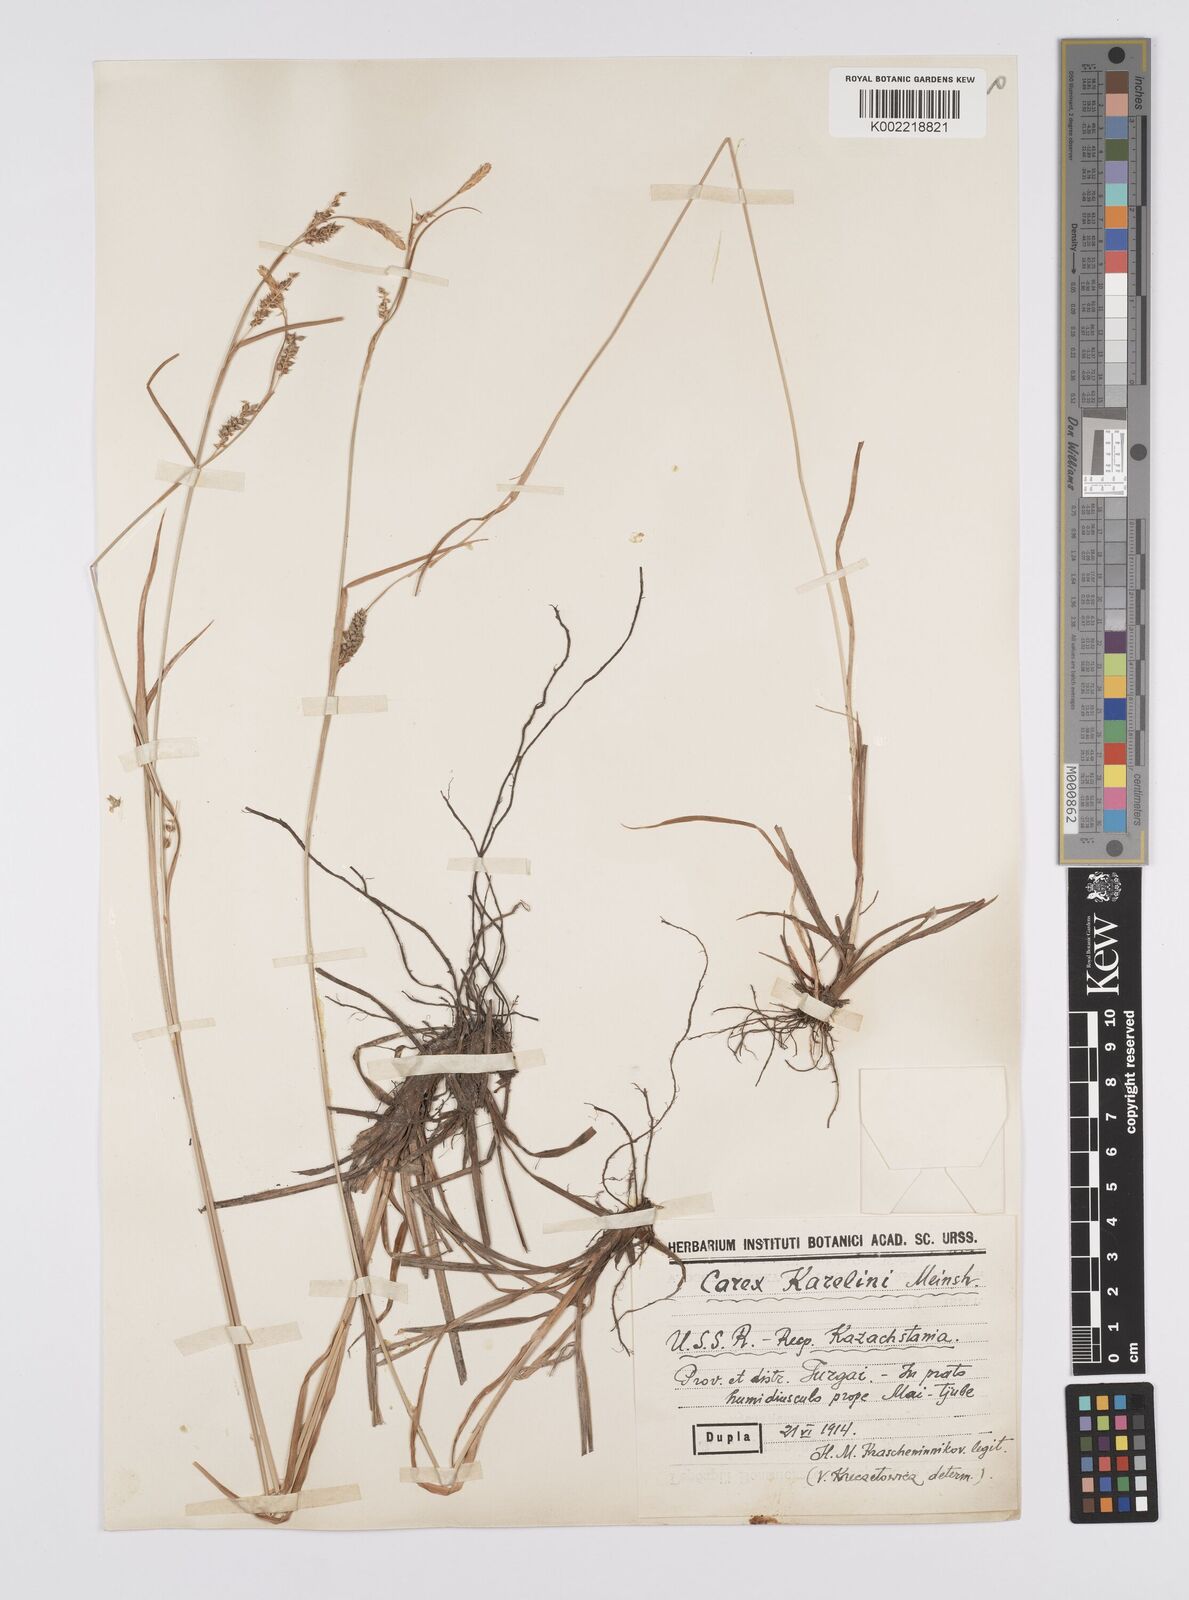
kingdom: Plantae
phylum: Tracheophyta
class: Liliopsida
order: Poales
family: Cyperaceae
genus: Carex
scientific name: Carex diluta
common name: Sedge
